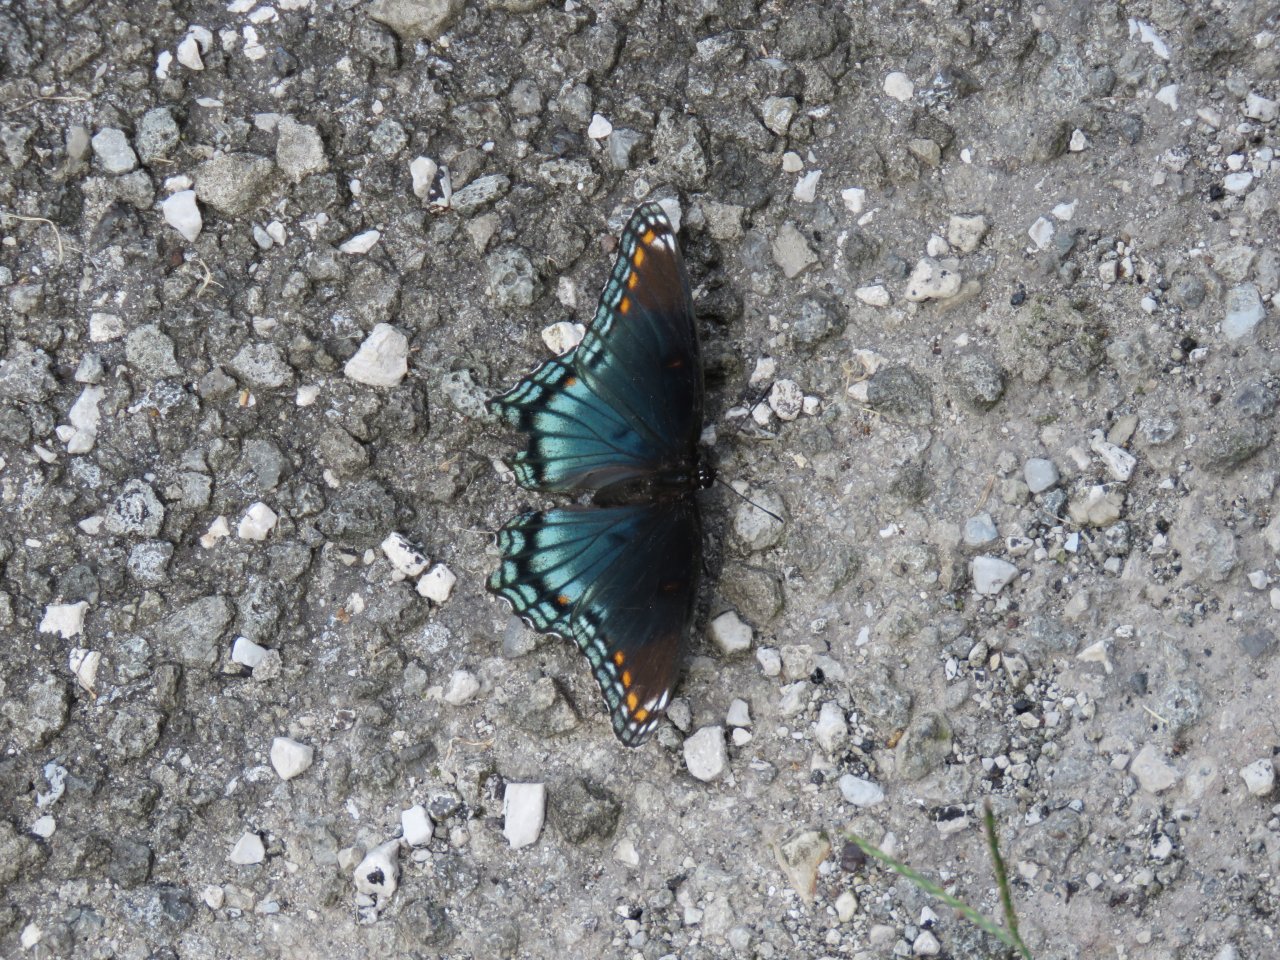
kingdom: Animalia
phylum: Arthropoda
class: Insecta
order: Lepidoptera
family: Nymphalidae
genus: Limenitis
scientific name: Limenitis astyanax
